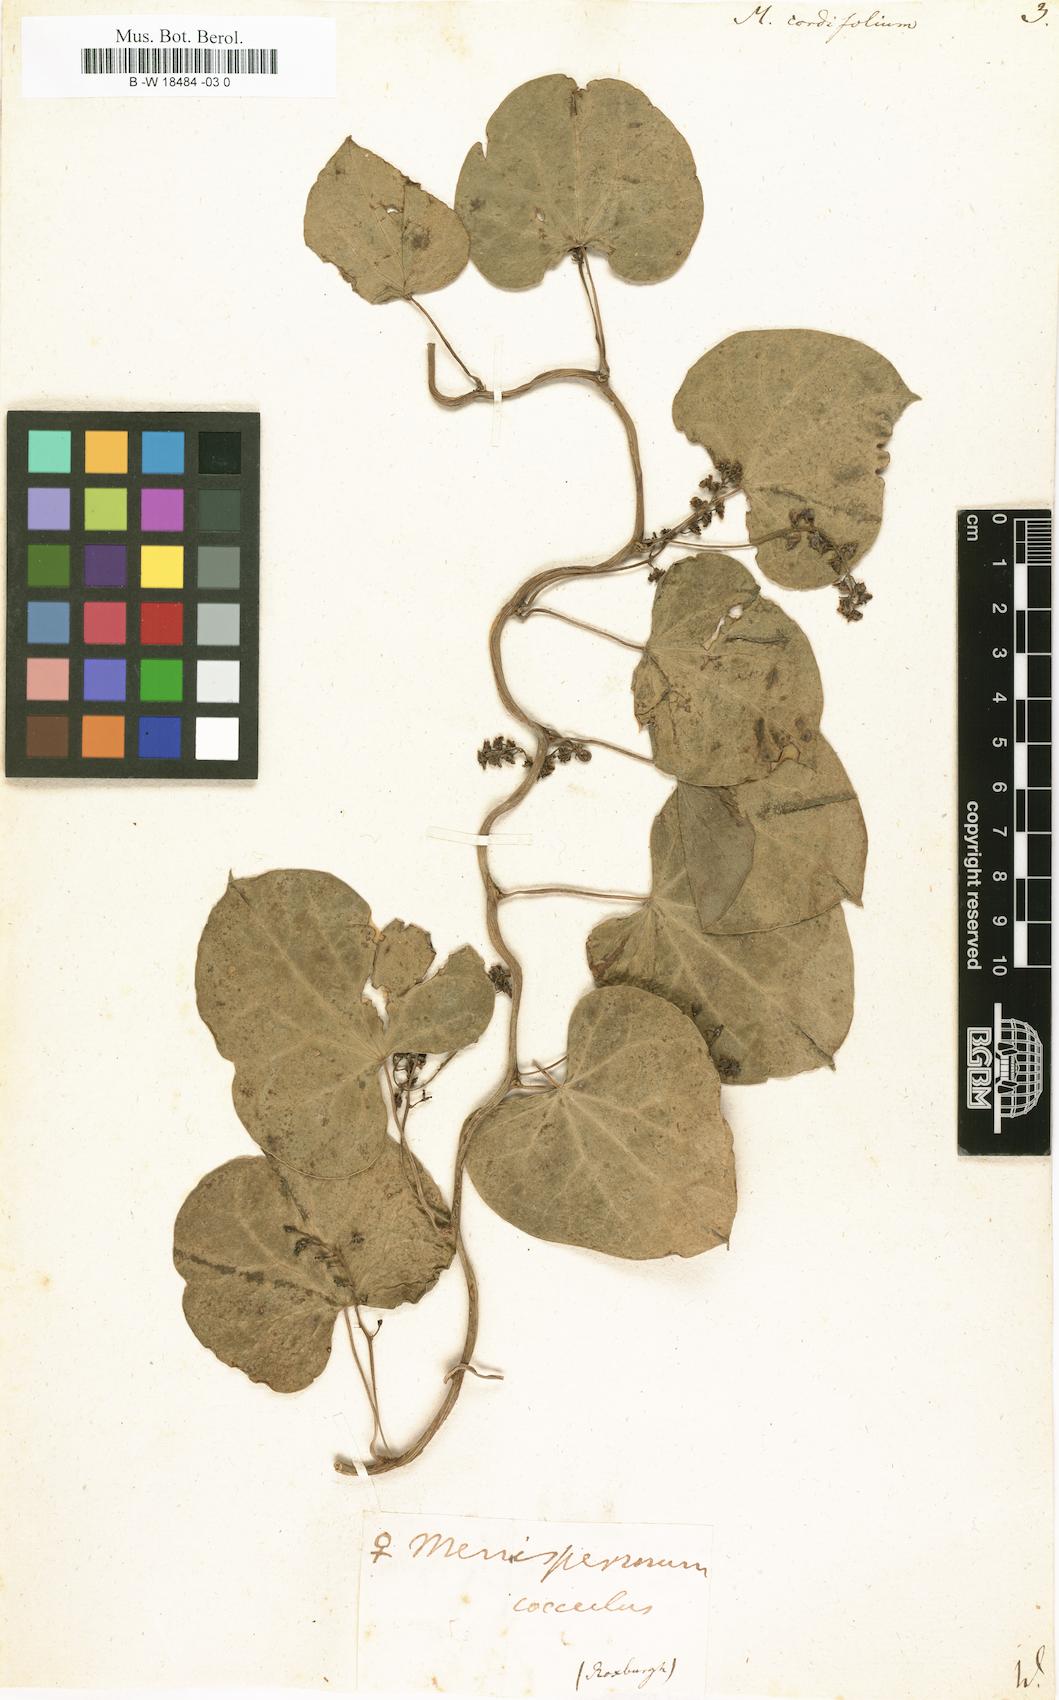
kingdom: Plantae
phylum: Tracheophyta
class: Magnoliopsida
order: Ranunculales
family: Menispermaceae
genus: Tinospora
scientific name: Tinospora cordifolia
